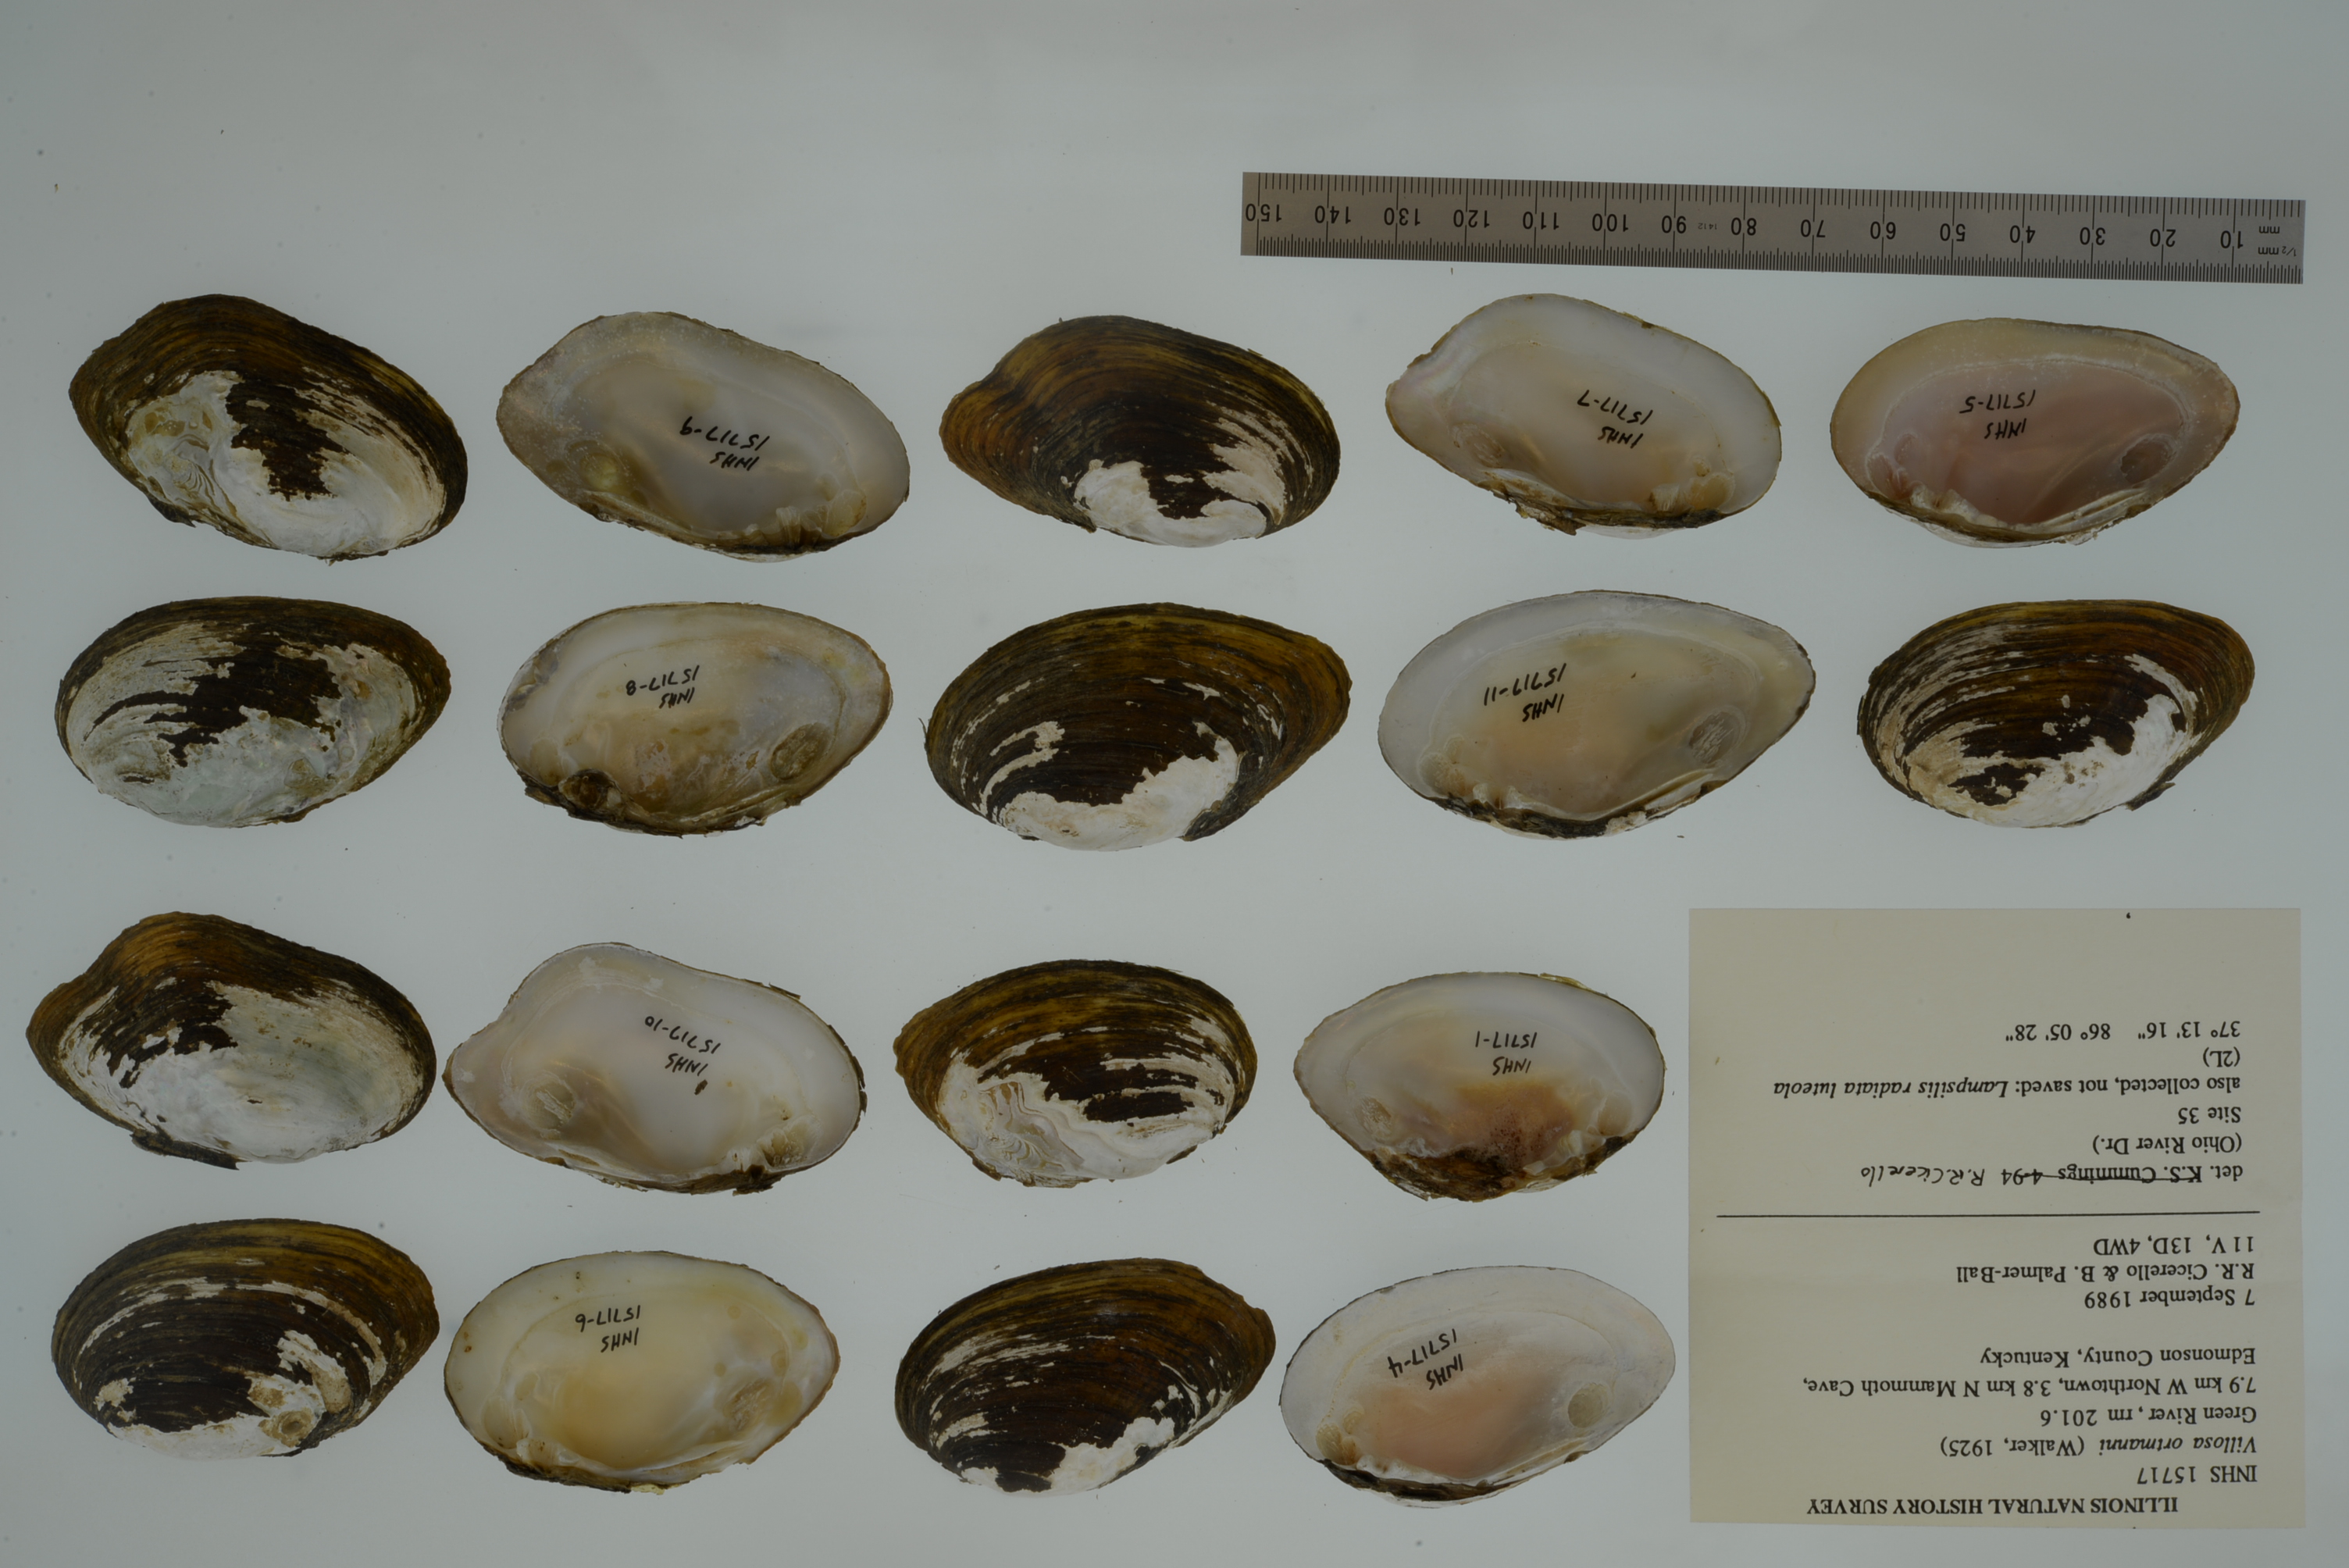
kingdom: Animalia
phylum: Mollusca
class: Bivalvia
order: Unionida
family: Unionidae
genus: Quadrula
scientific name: Quadrula quadrula
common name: Mapleleaf
